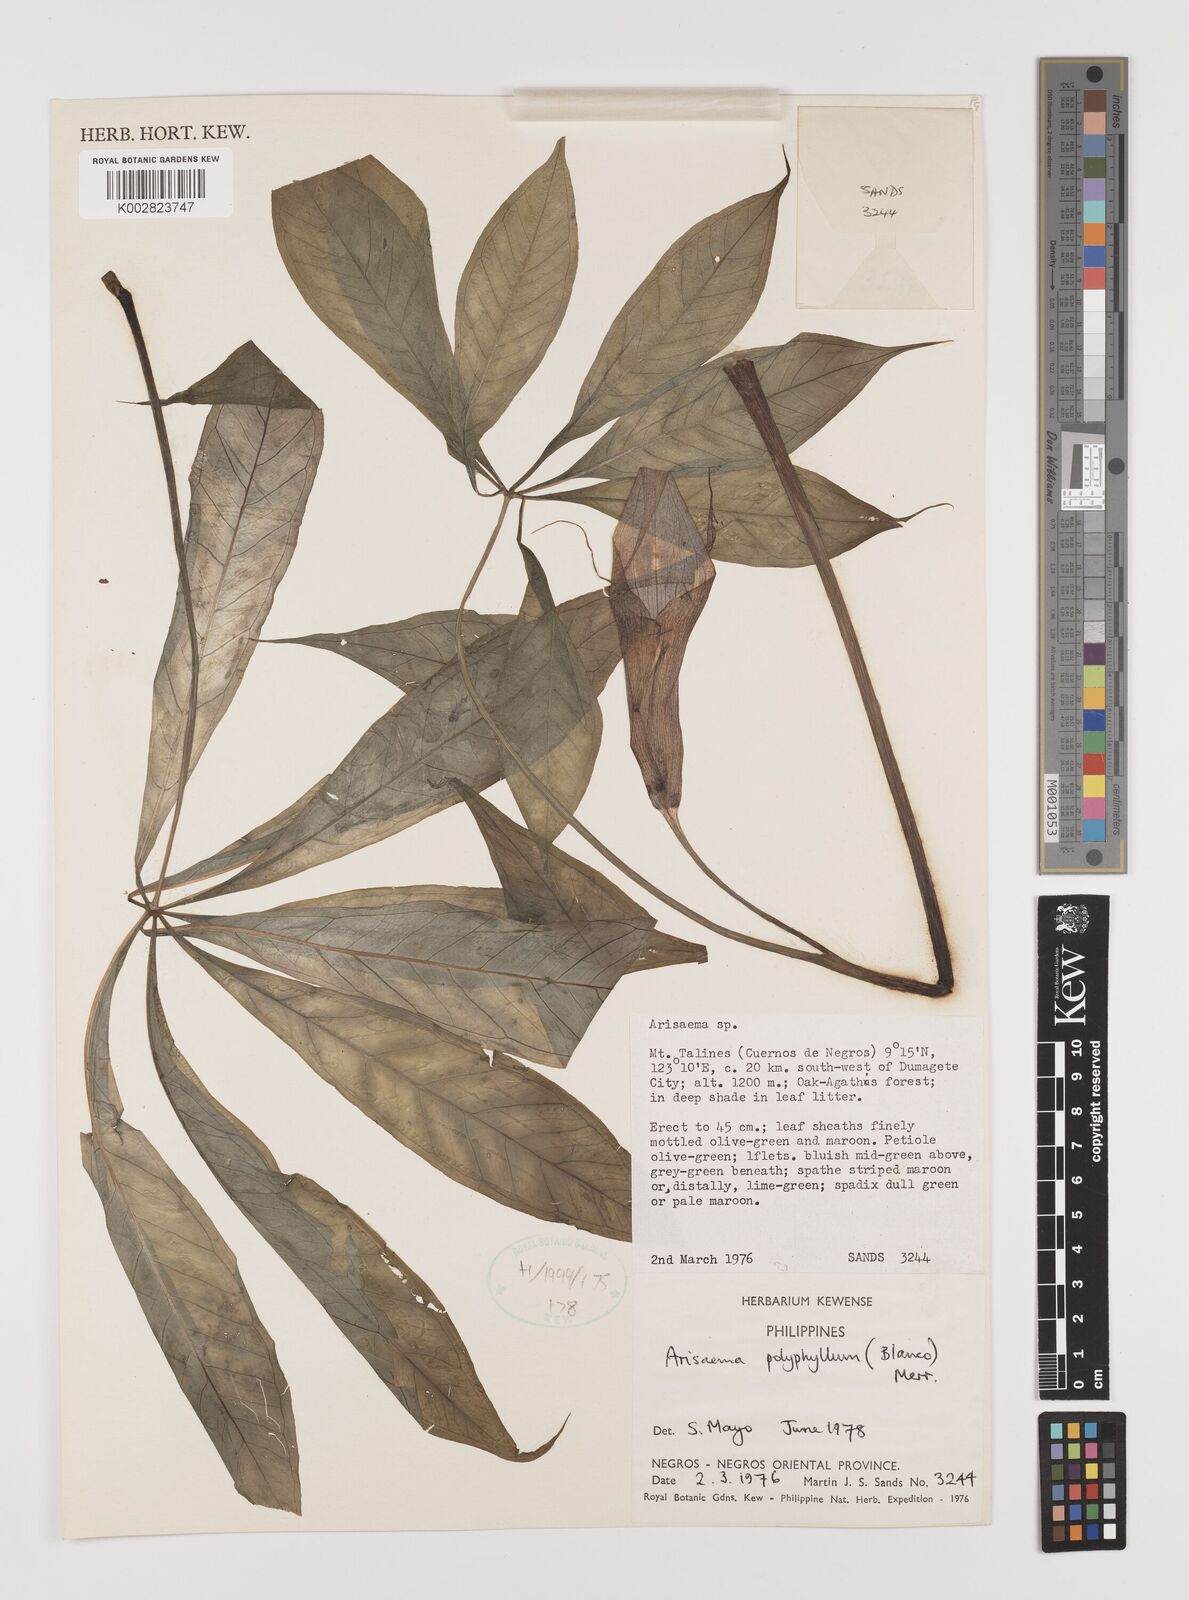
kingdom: Plantae
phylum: Tracheophyta
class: Liliopsida
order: Alismatales
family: Araceae
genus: Arisaema
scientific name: Arisaema polyphyllum
